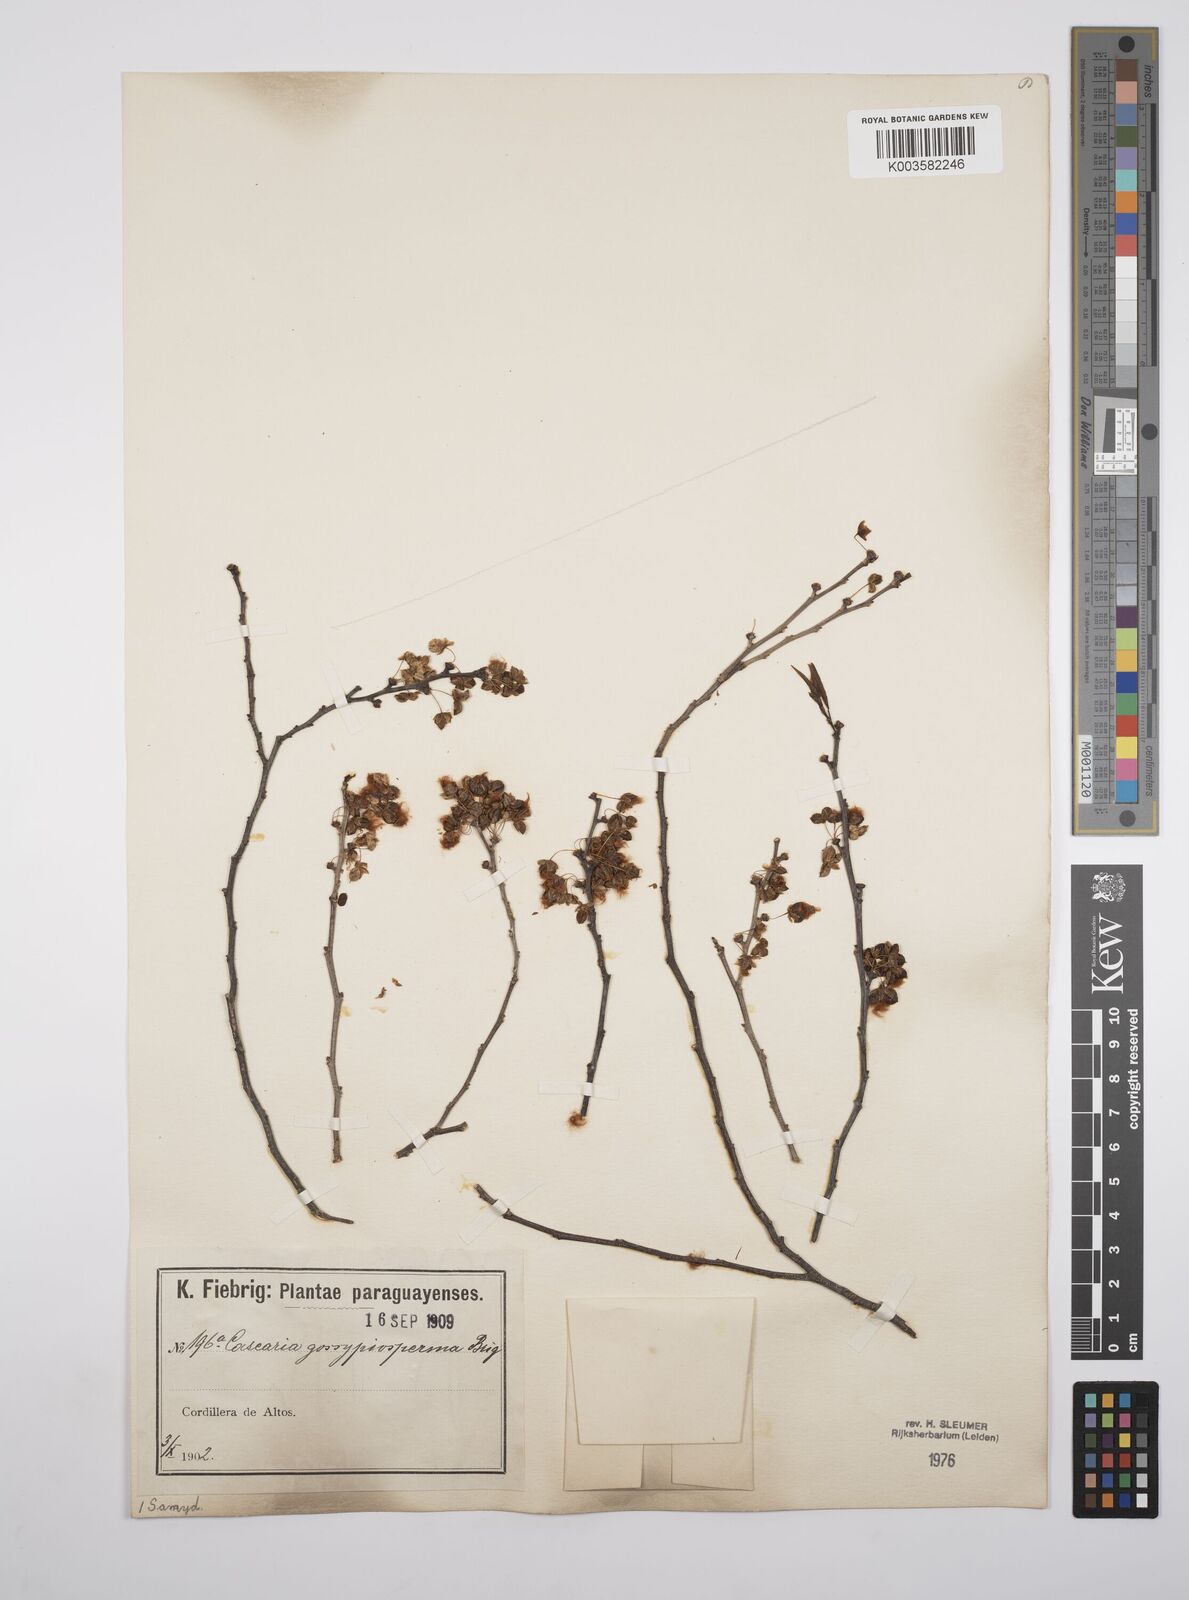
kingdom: Plantae
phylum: Tracheophyta
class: Magnoliopsida
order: Malpighiales
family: Salicaceae
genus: Casearia
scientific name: Casearia gossypiosperma
